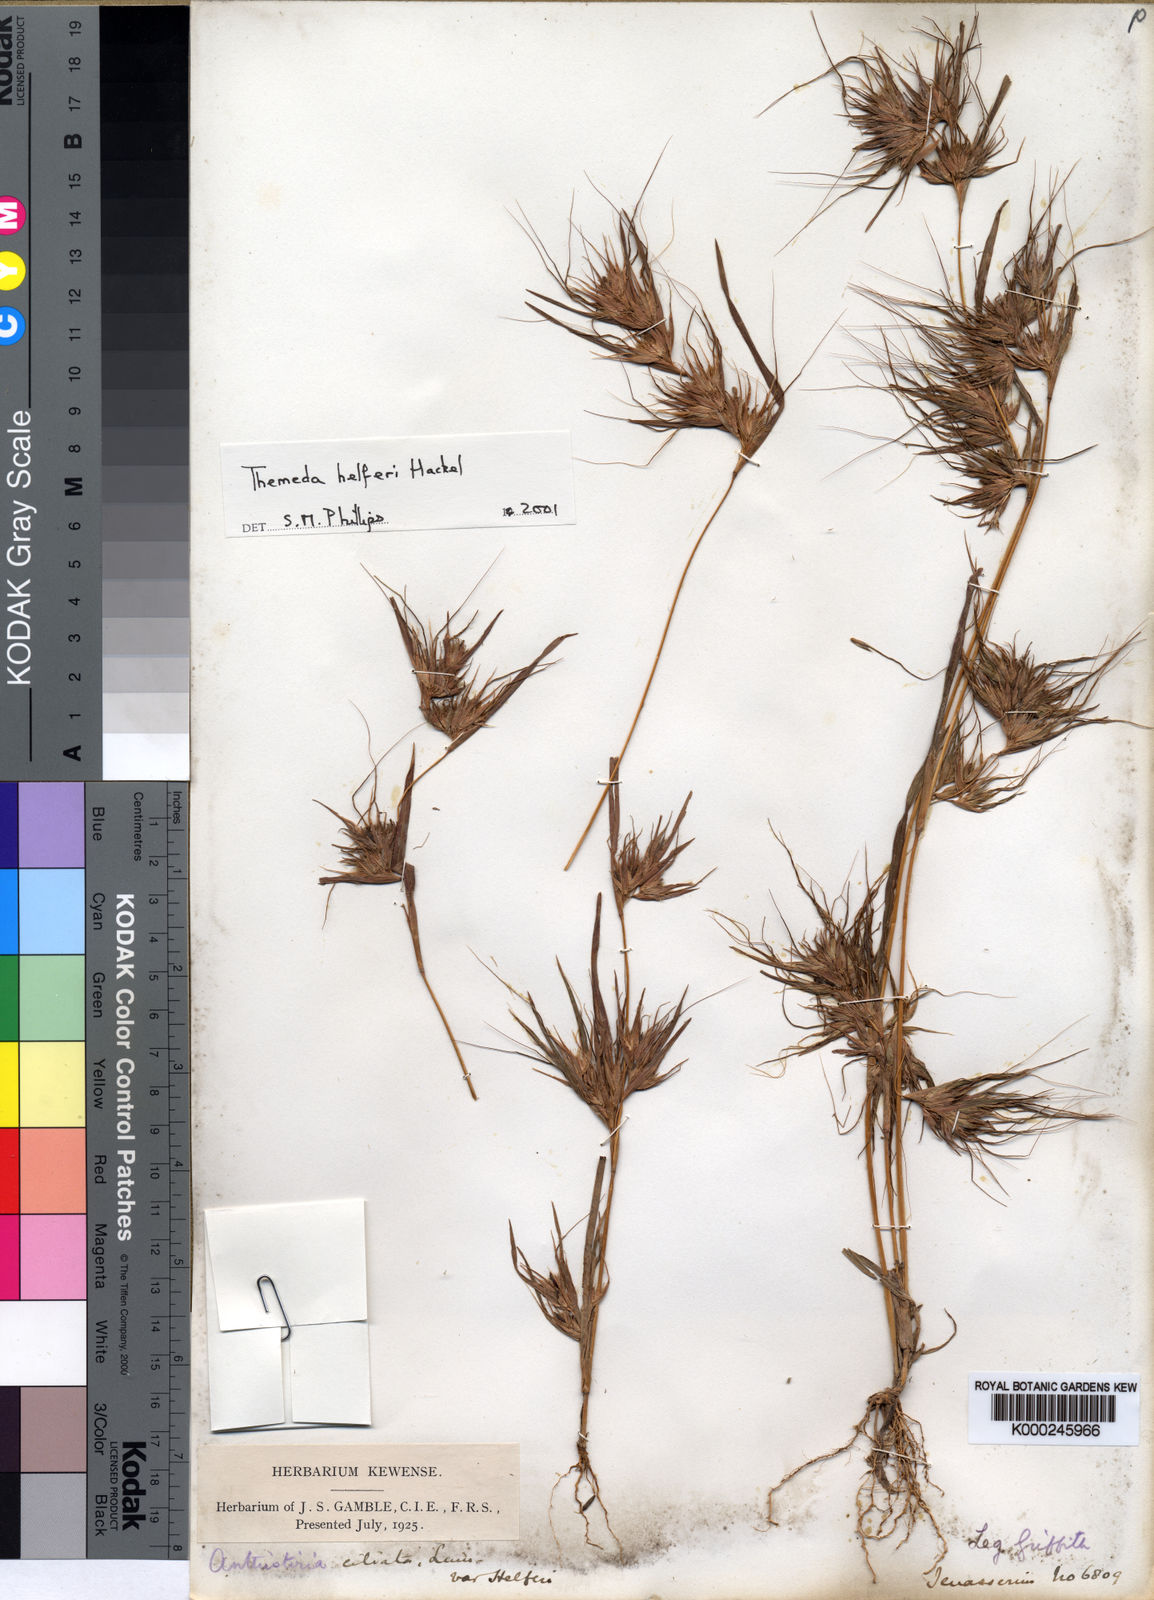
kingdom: Plantae
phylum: Tracheophyta
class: Liliopsida
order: Poales
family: Poaceae
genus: Themeda
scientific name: Themeda helferi
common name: Kangaroo grass
